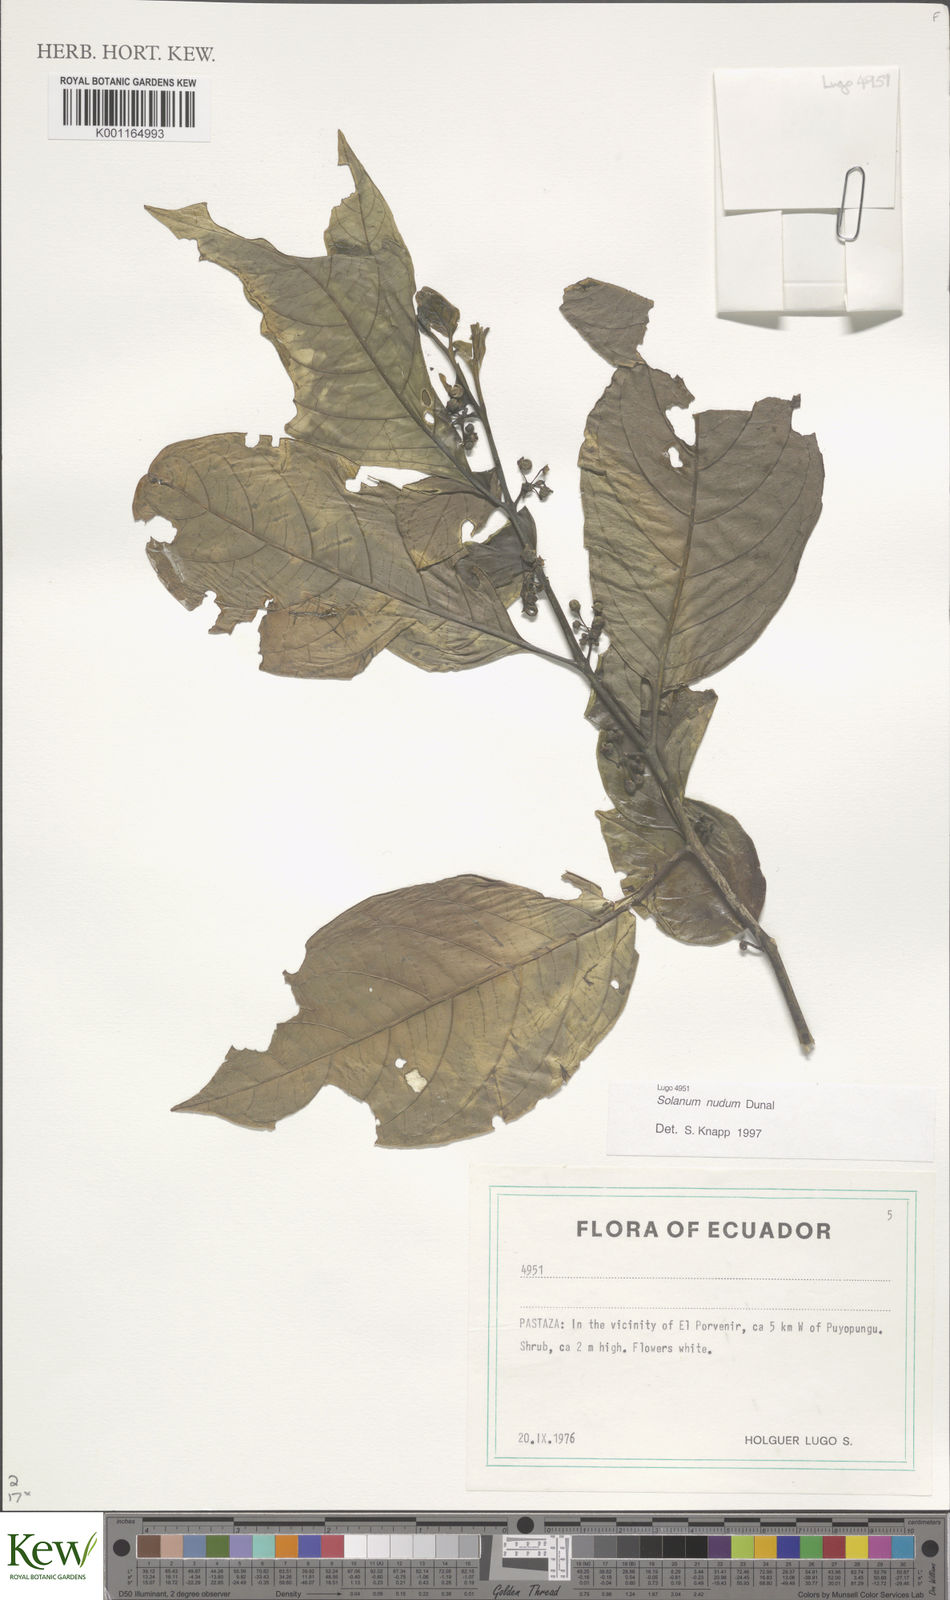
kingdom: Plantae
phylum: Tracheophyta
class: Magnoliopsida
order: Solanales
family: Solanaceae
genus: Solanum
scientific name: Solanum nudum
